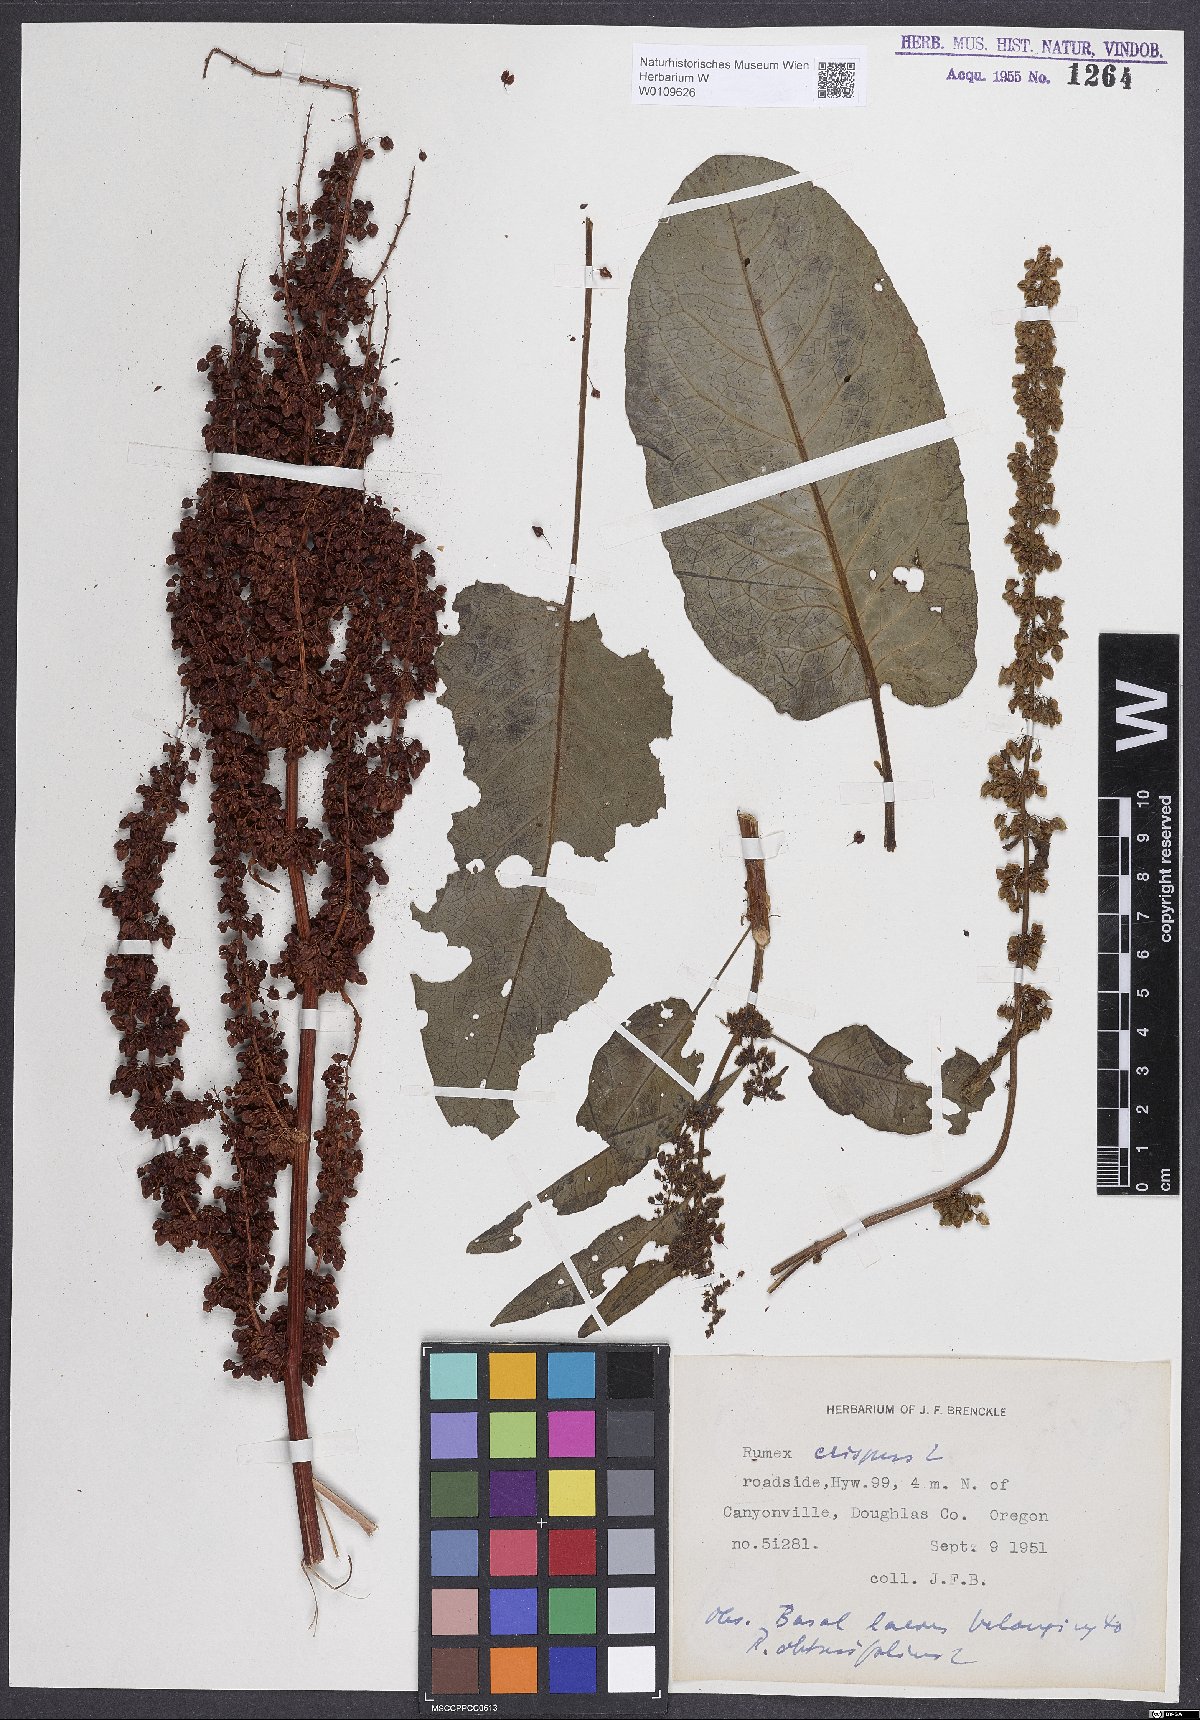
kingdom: Plantae
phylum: Tracheophyta
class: Magnoliopsida
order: Caryophyllales
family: Polygonaceae
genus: Rumex
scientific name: Rumex crispus
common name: Curled dock
